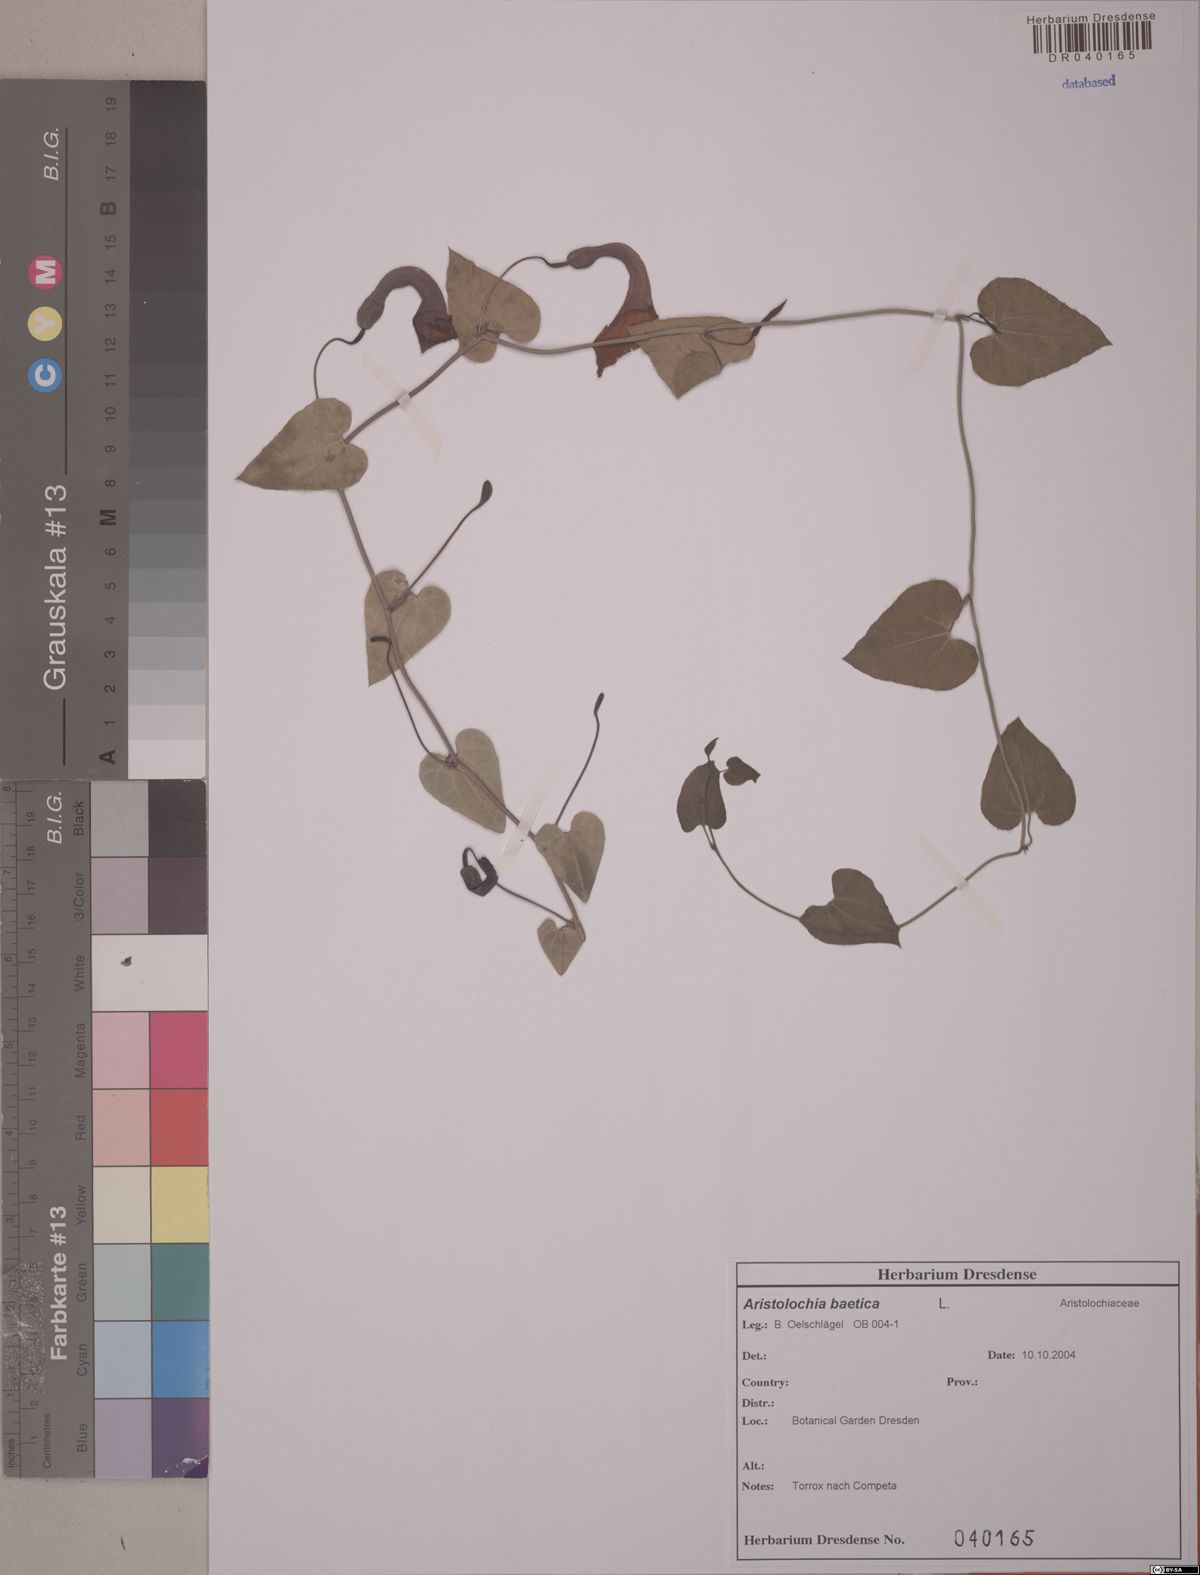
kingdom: Plantae
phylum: Tracheophyta
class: Magnoliopsida
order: Piperales
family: Aristolochiaceae
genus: Aristolochia
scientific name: Aristolochia baetica
